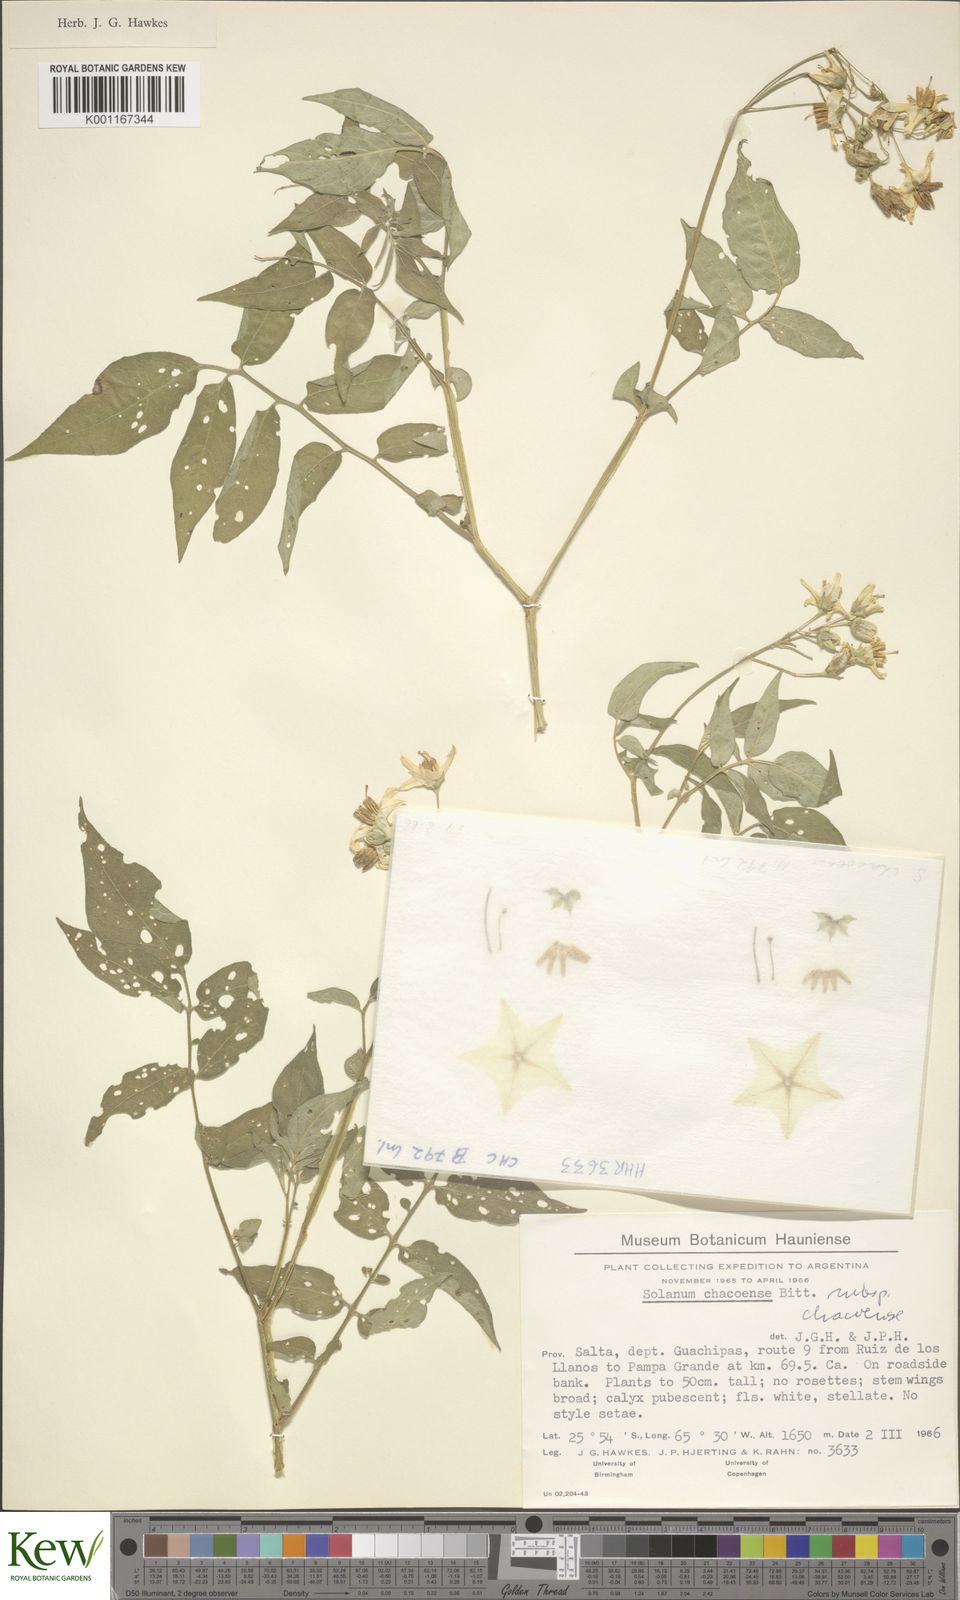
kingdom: Plantae
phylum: Tracheophyta
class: Magnoliopsida
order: Solanales
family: Solanaceae
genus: Solanum
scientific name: Solanum chacoense
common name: Chaco potato
